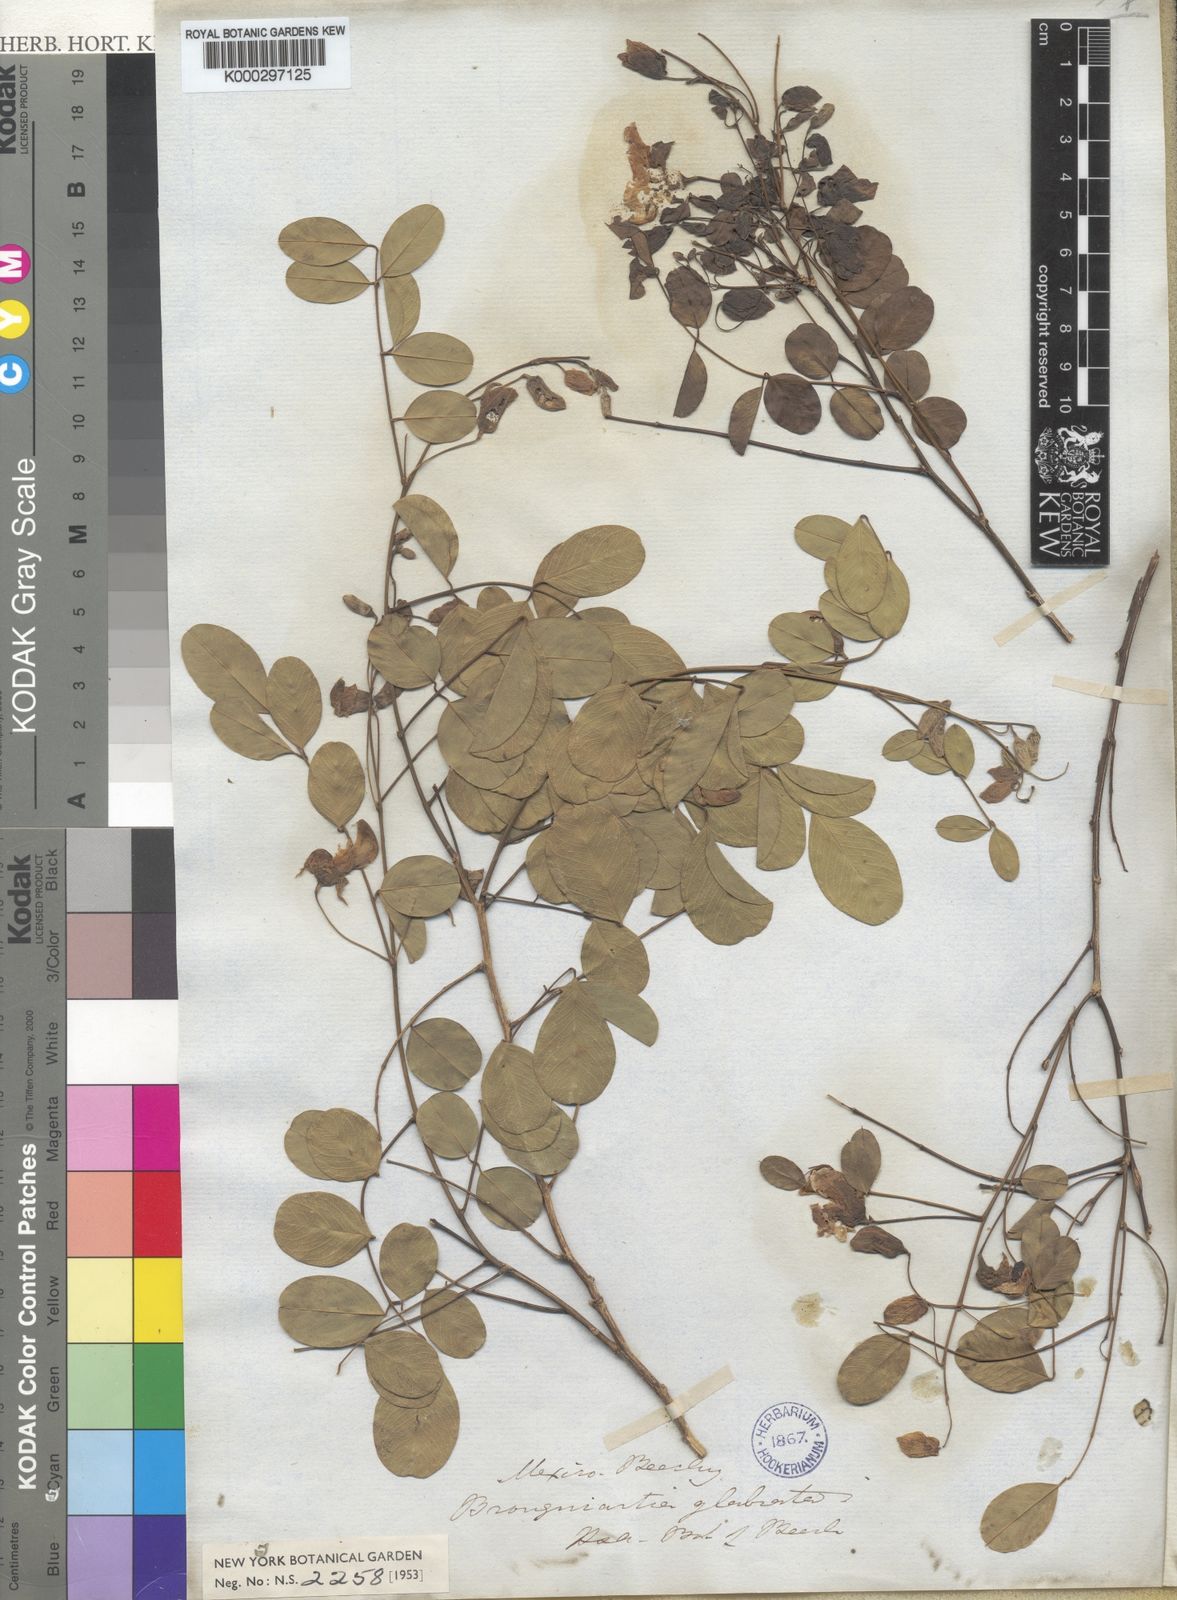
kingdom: Plantae
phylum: Tracheophyta
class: Magnoliopsida
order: Fabales
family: Fabaceae
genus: Brongniartia
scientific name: Brongniartia glabrata
